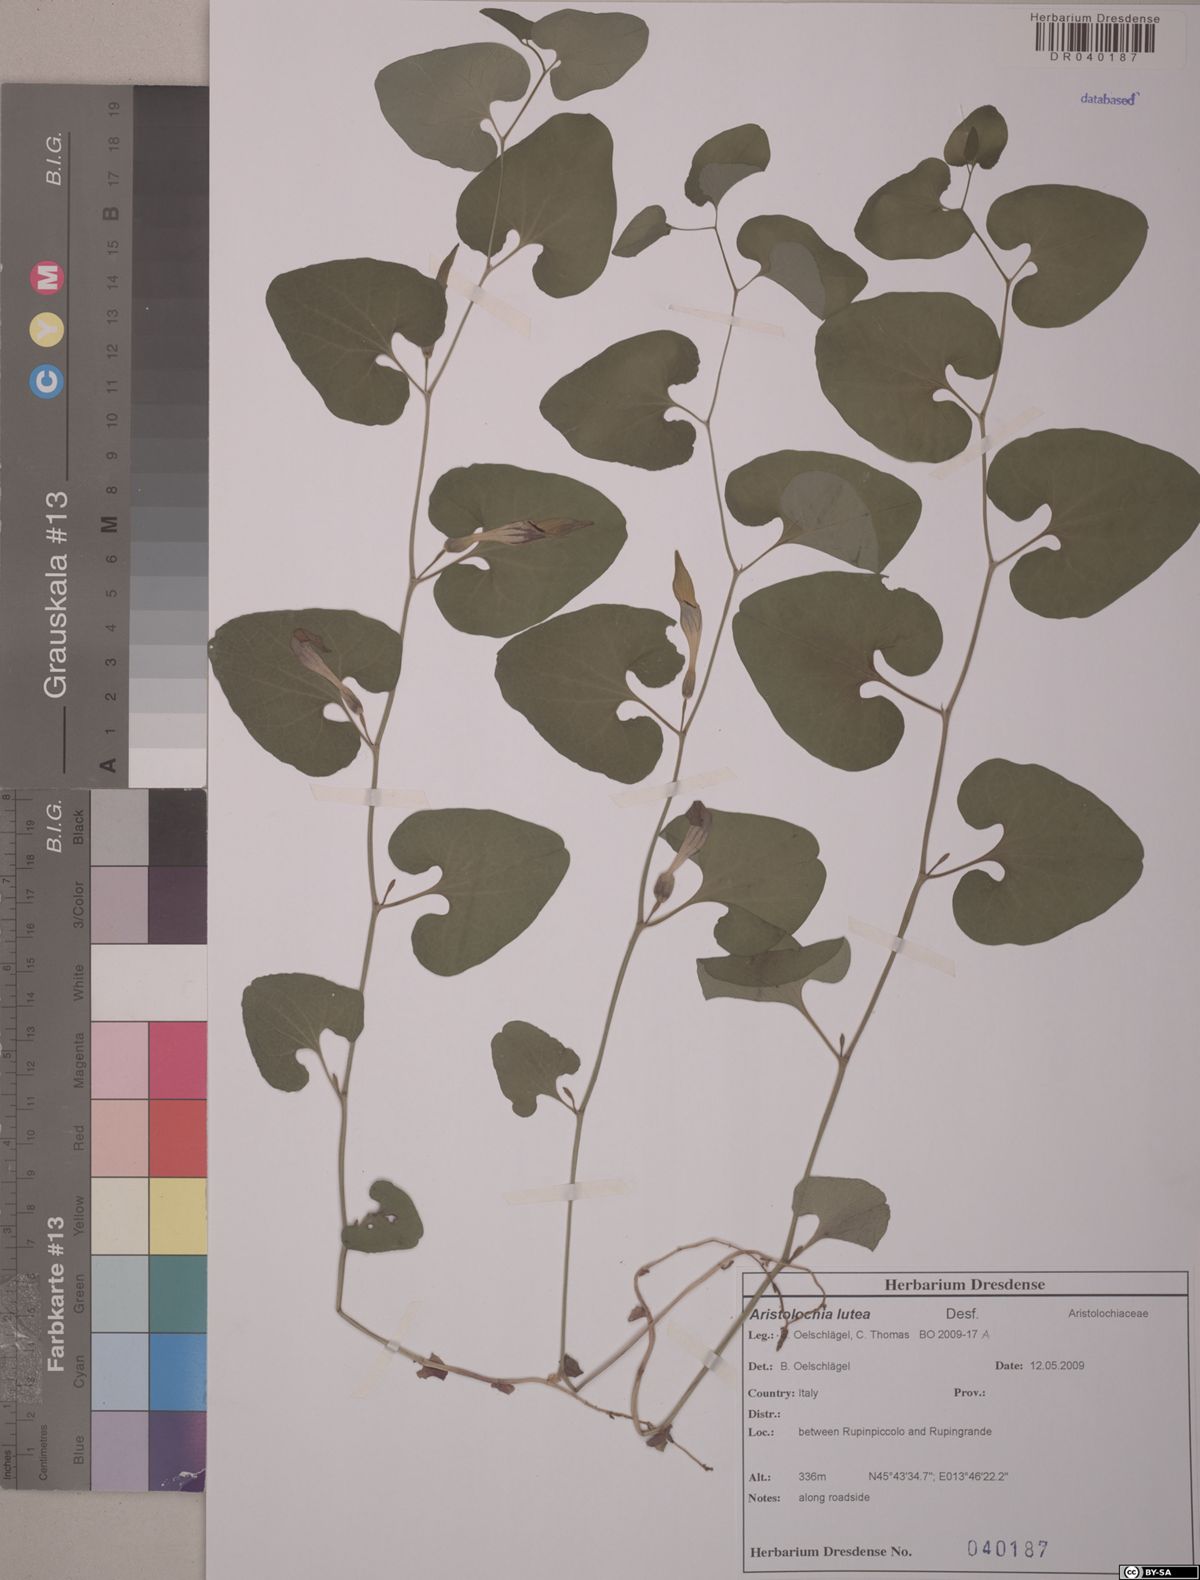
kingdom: Plantae
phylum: Tracheophyta
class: Magnoliopsida
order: Piperales
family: Aristolochiaceae
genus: Aristolochia
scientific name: Aristolochia lutea
